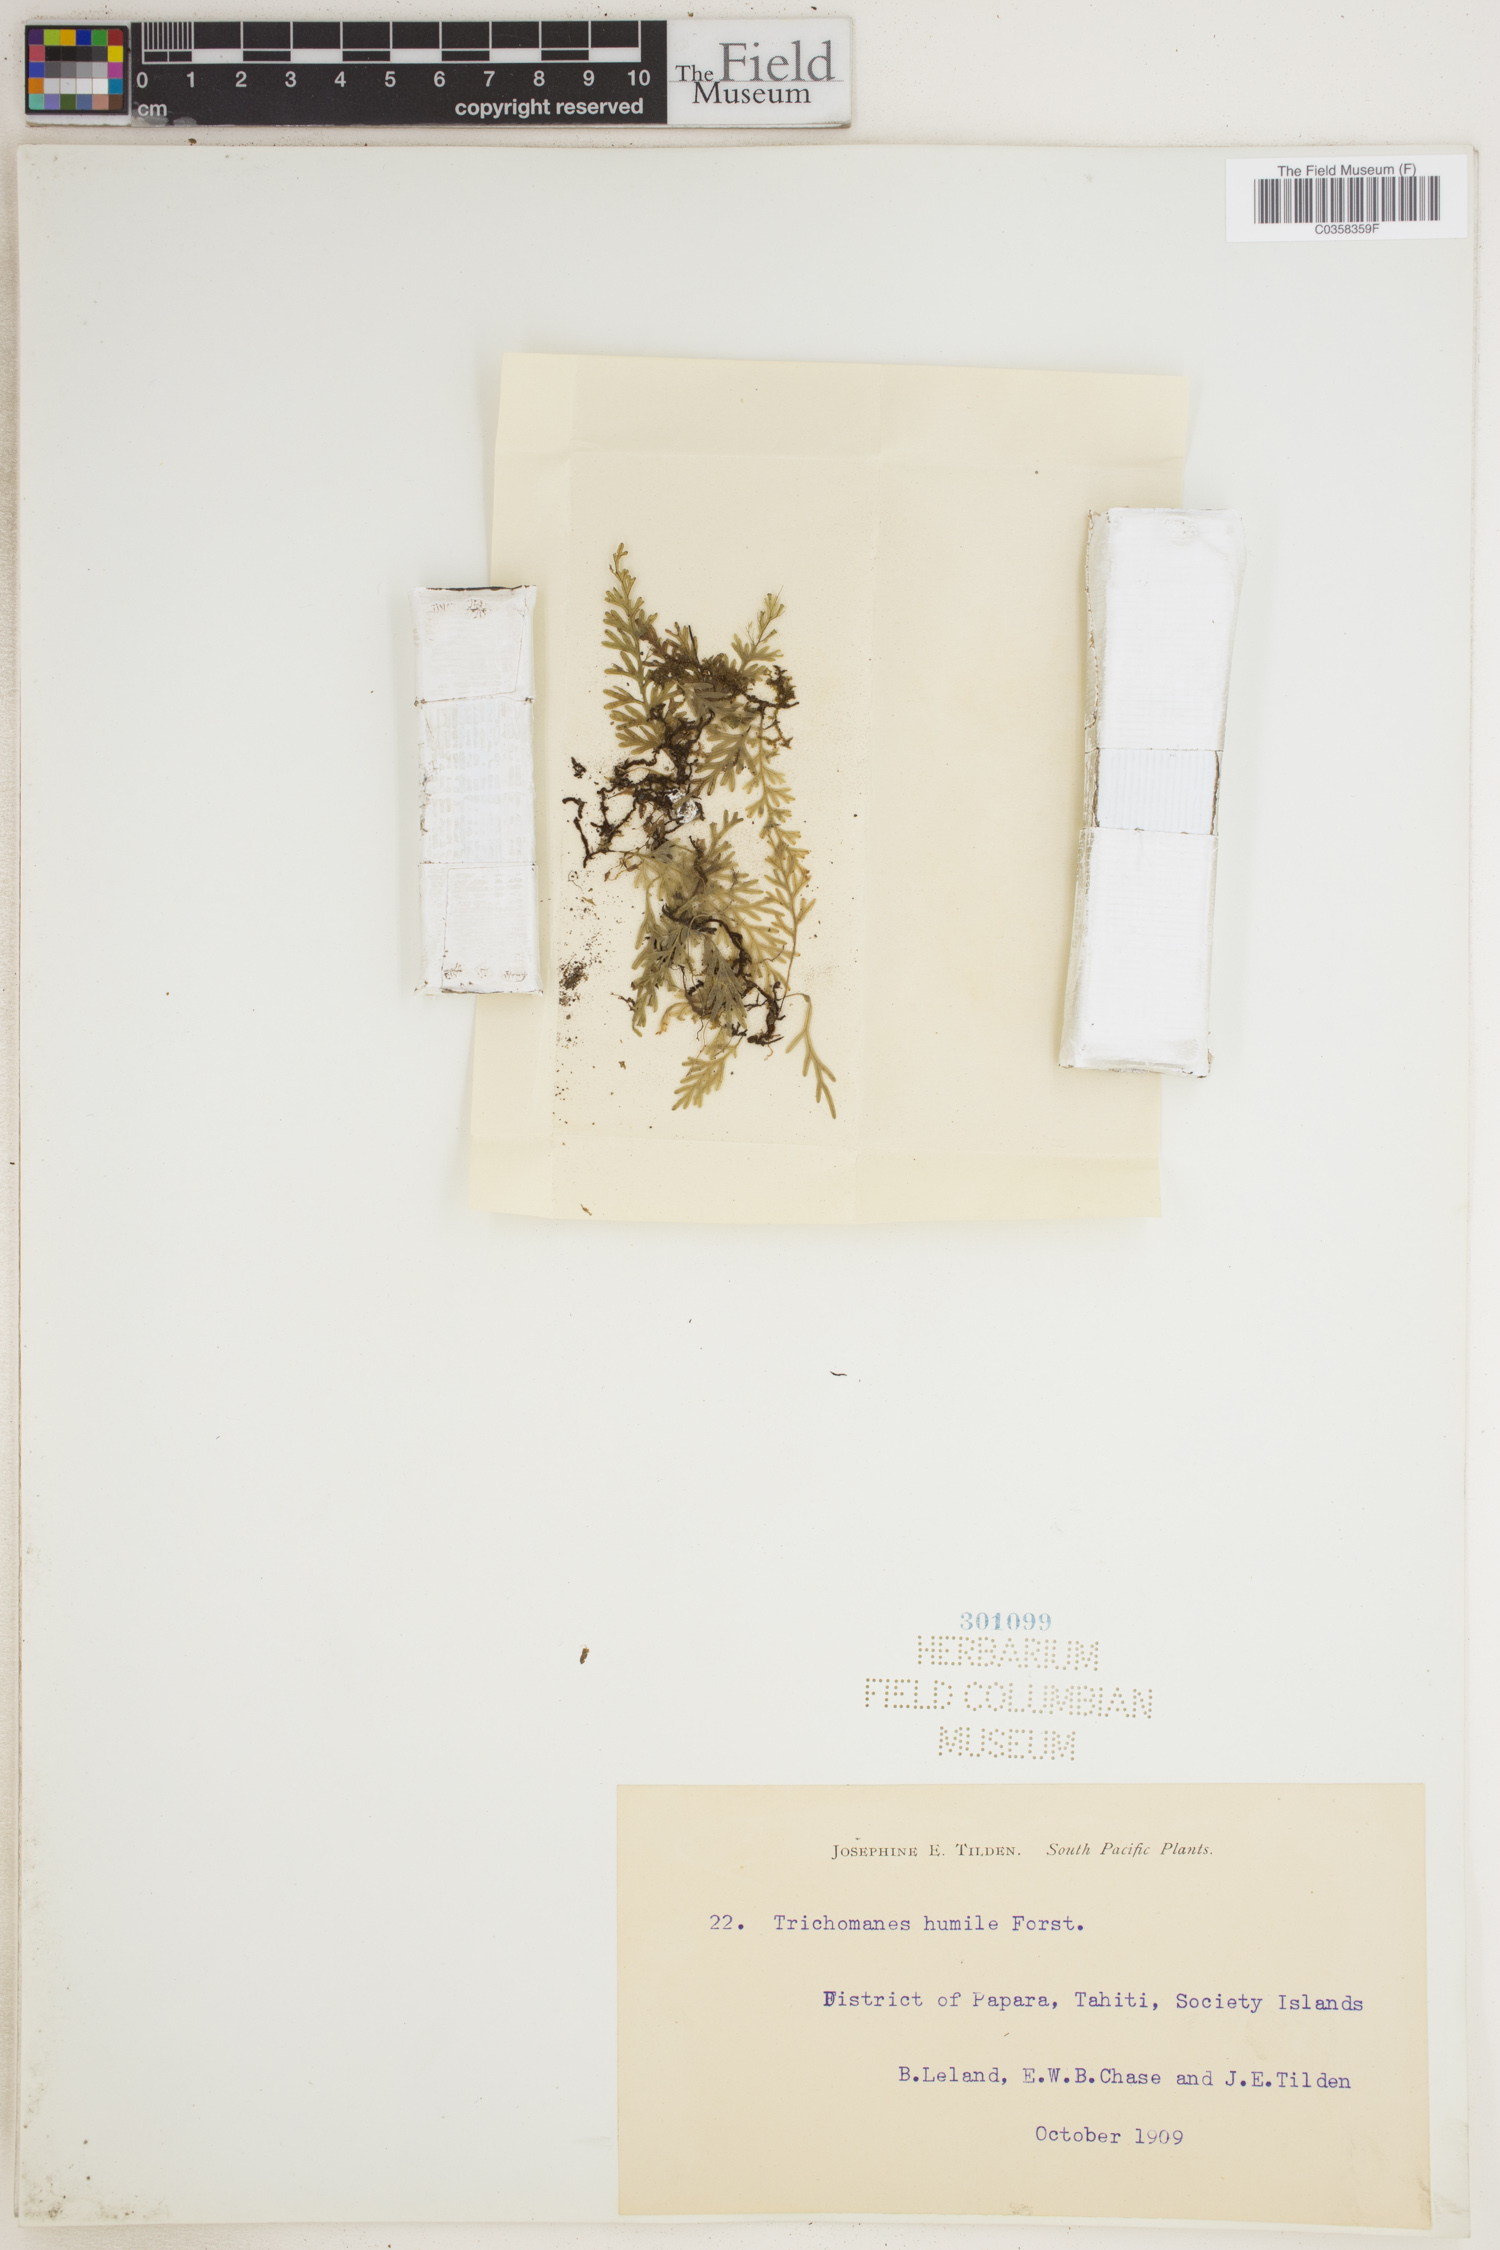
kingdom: Plantae
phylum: Tracheophyta
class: Polypodiopsida
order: Hymenophyllales
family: Hymenophyllaceae
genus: Crepidomanes
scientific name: Crepidomanes humile
